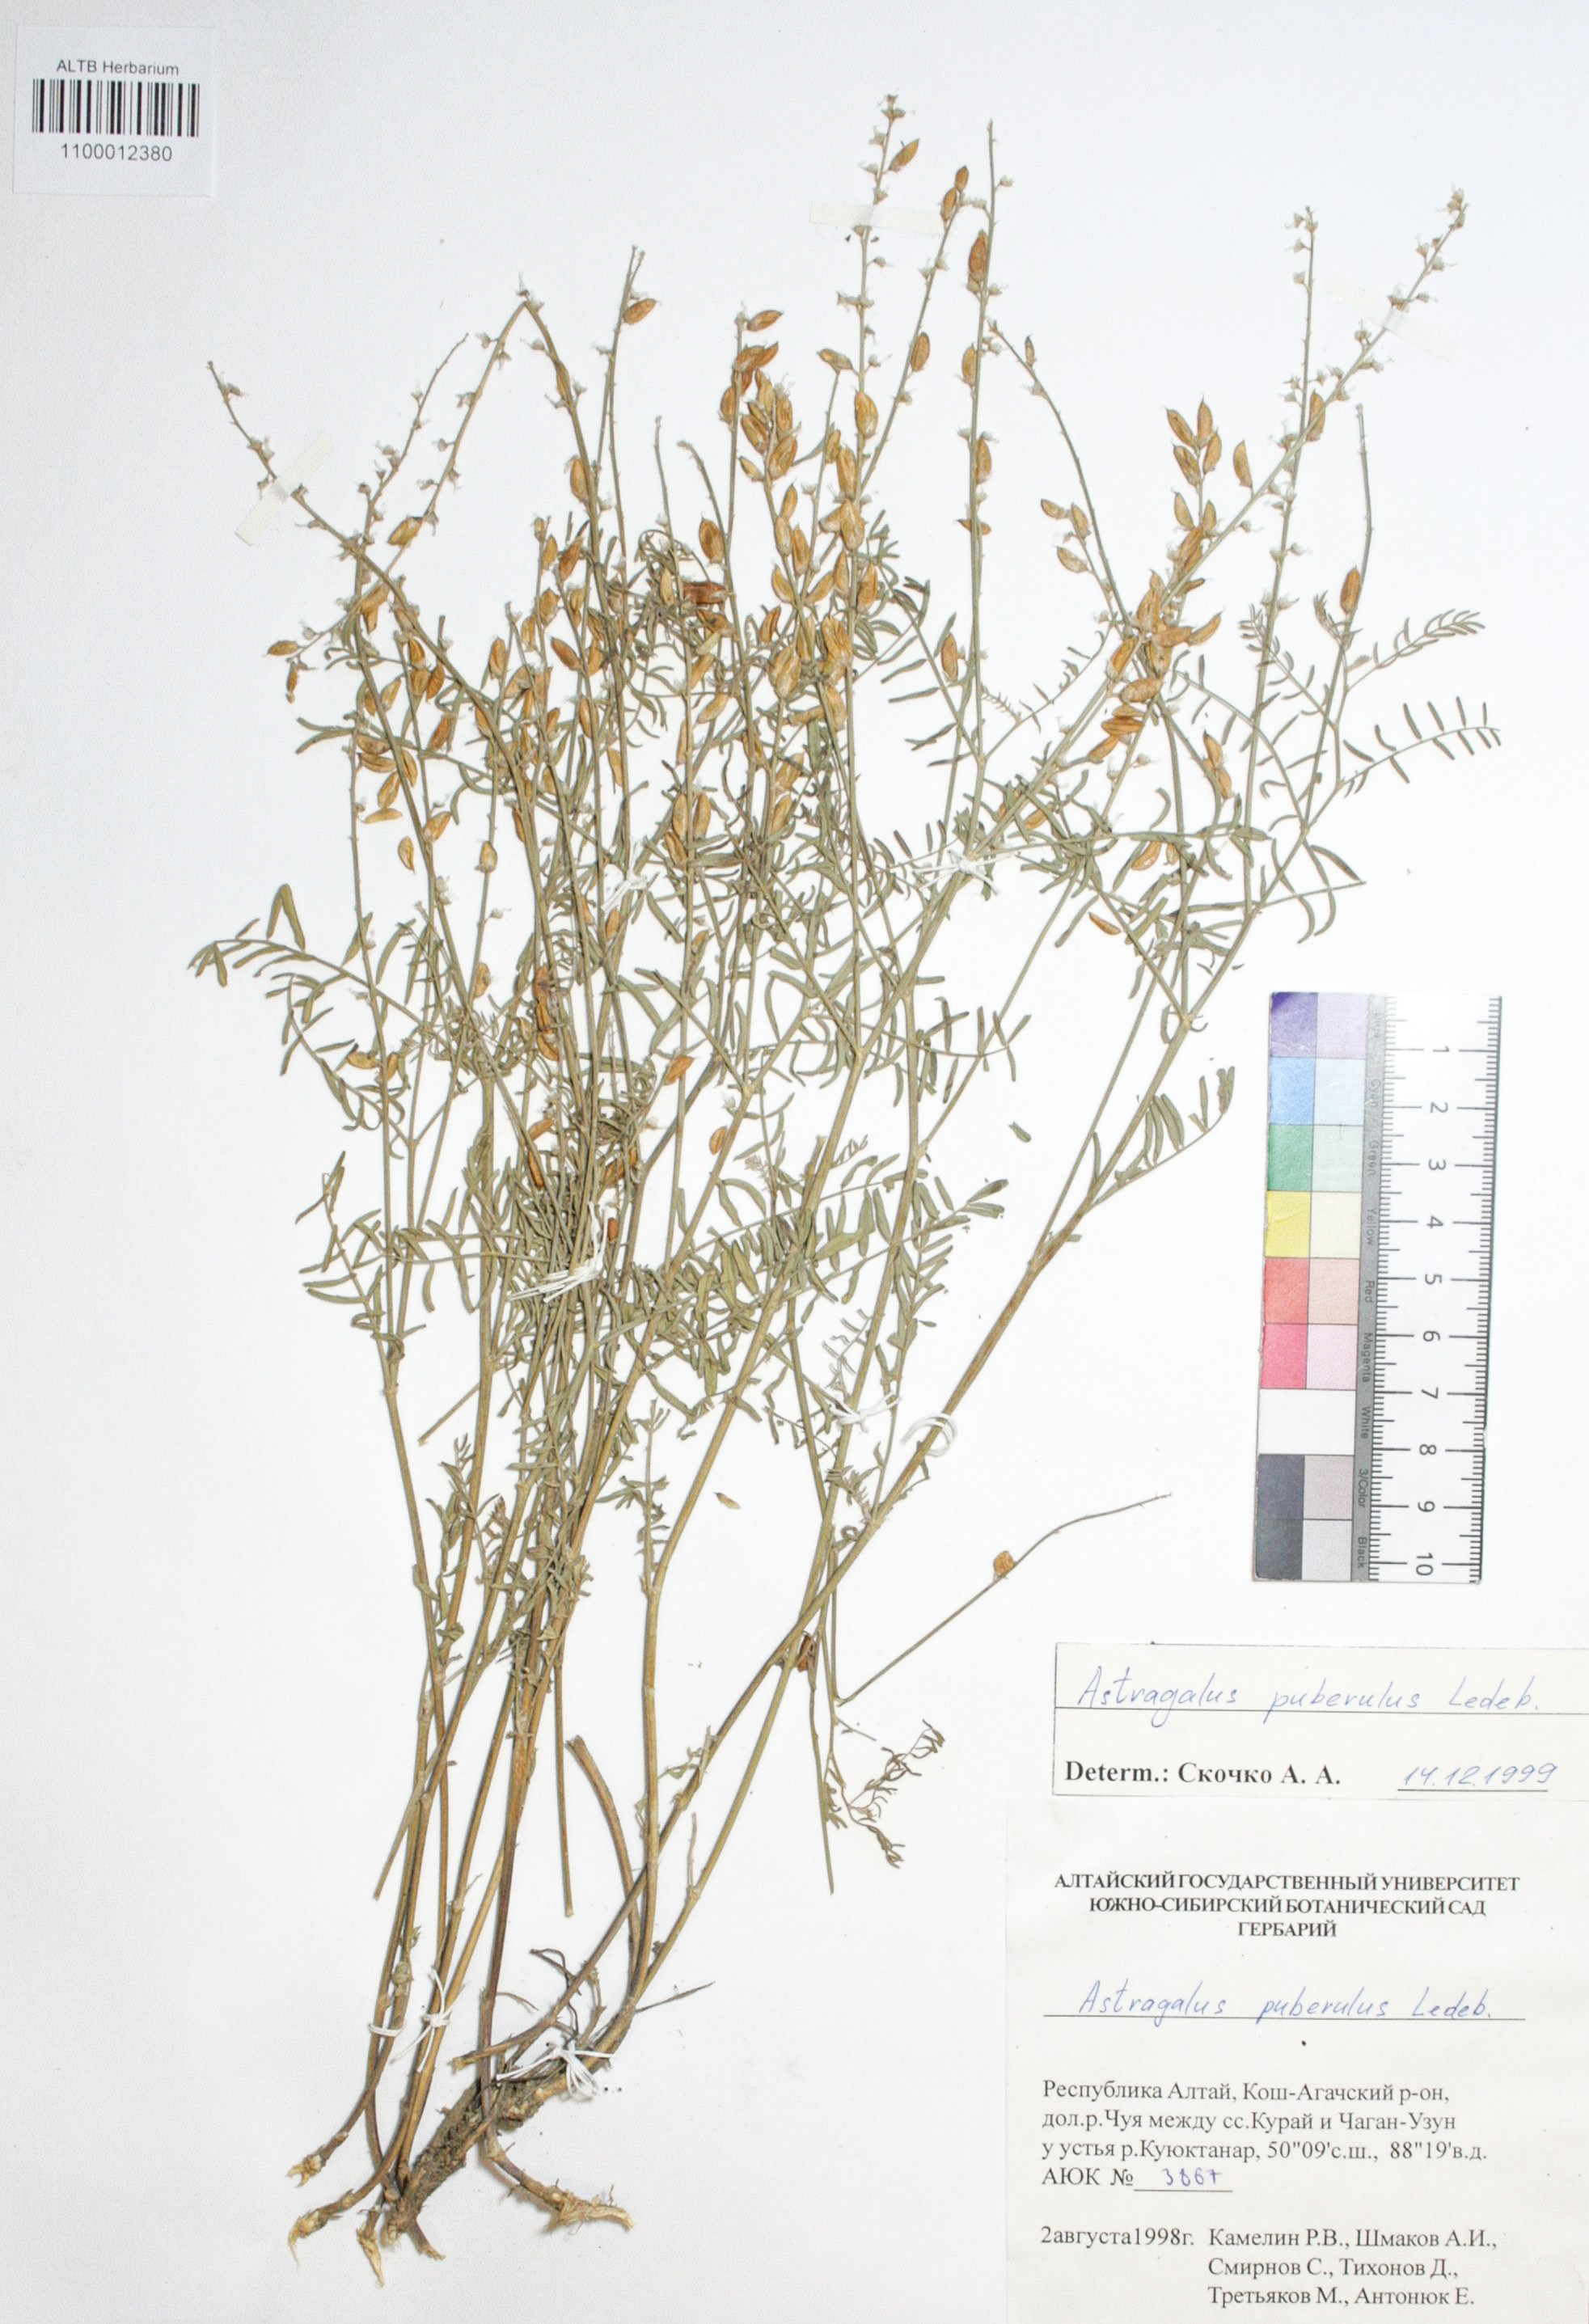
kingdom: Plantae
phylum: Tracheophyta
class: Magnoliopsida
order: Fabales
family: Fabaceae
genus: Astragalus
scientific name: Astragalus puberulus
